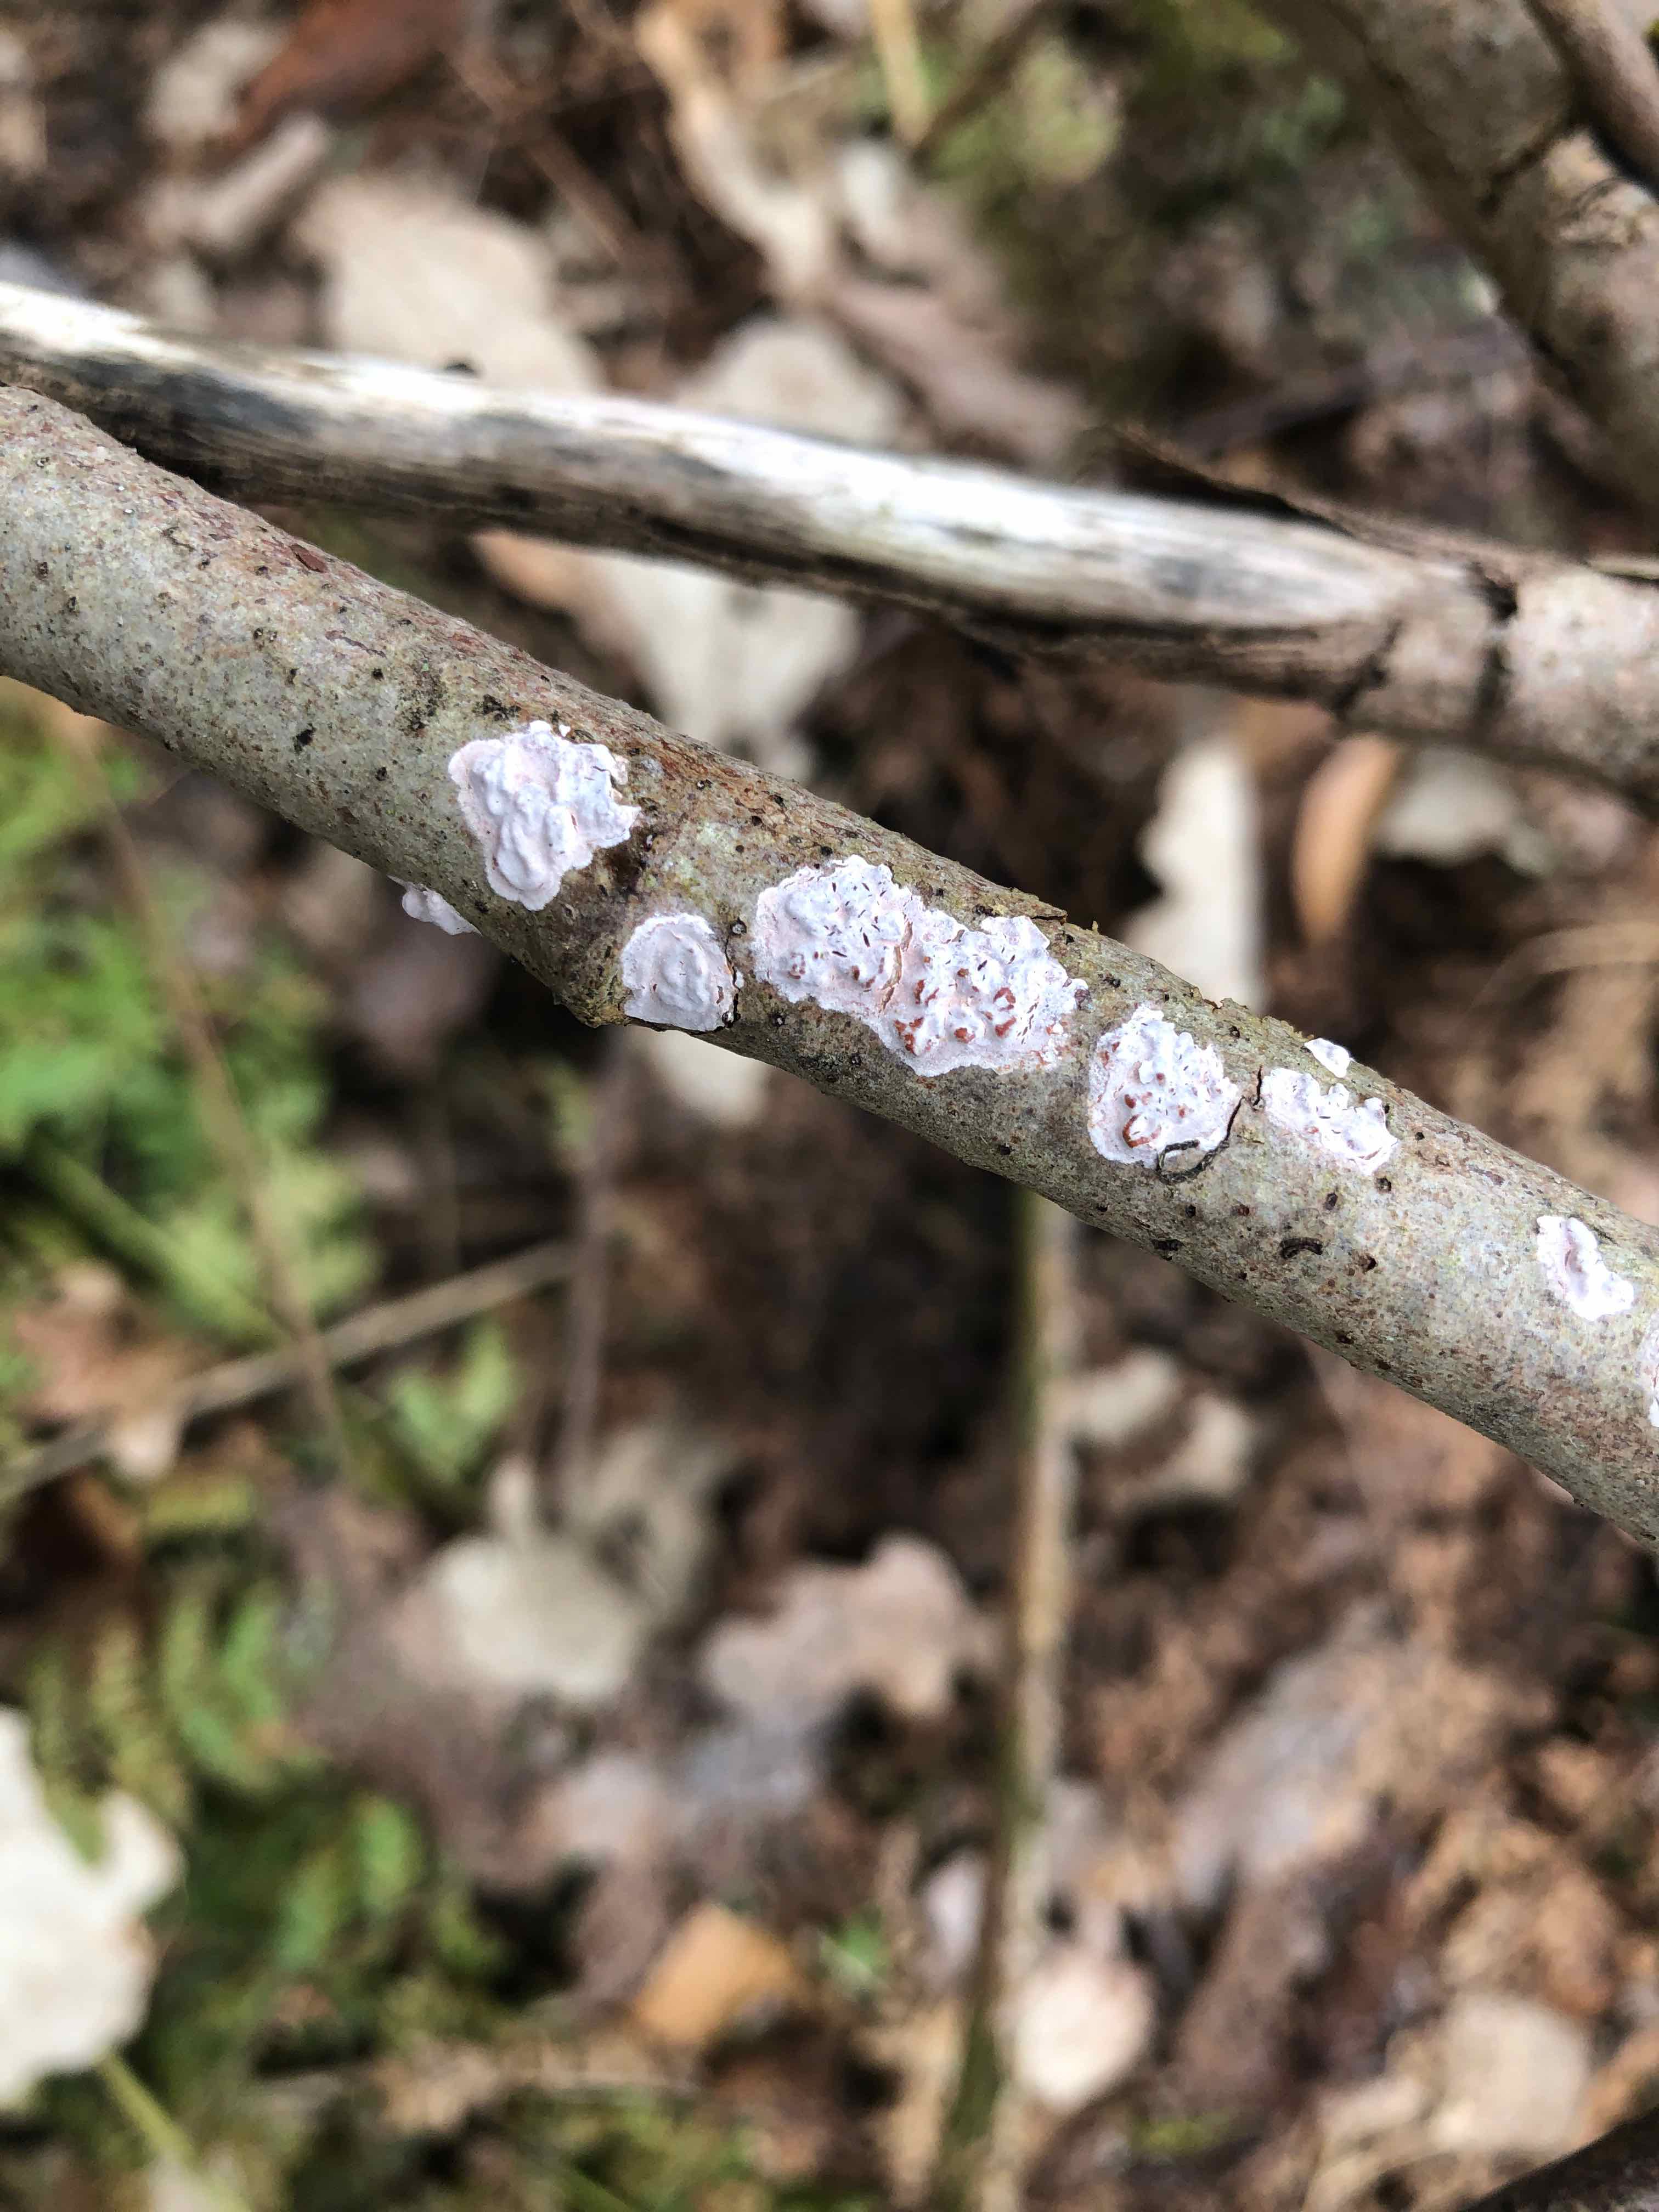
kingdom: Fungi
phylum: Basidiomycota
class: Agaricomycetes
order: Russulales
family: Peniophoraceae
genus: Peniophora
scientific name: Peniophora polygonia
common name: polygon-voksskind
